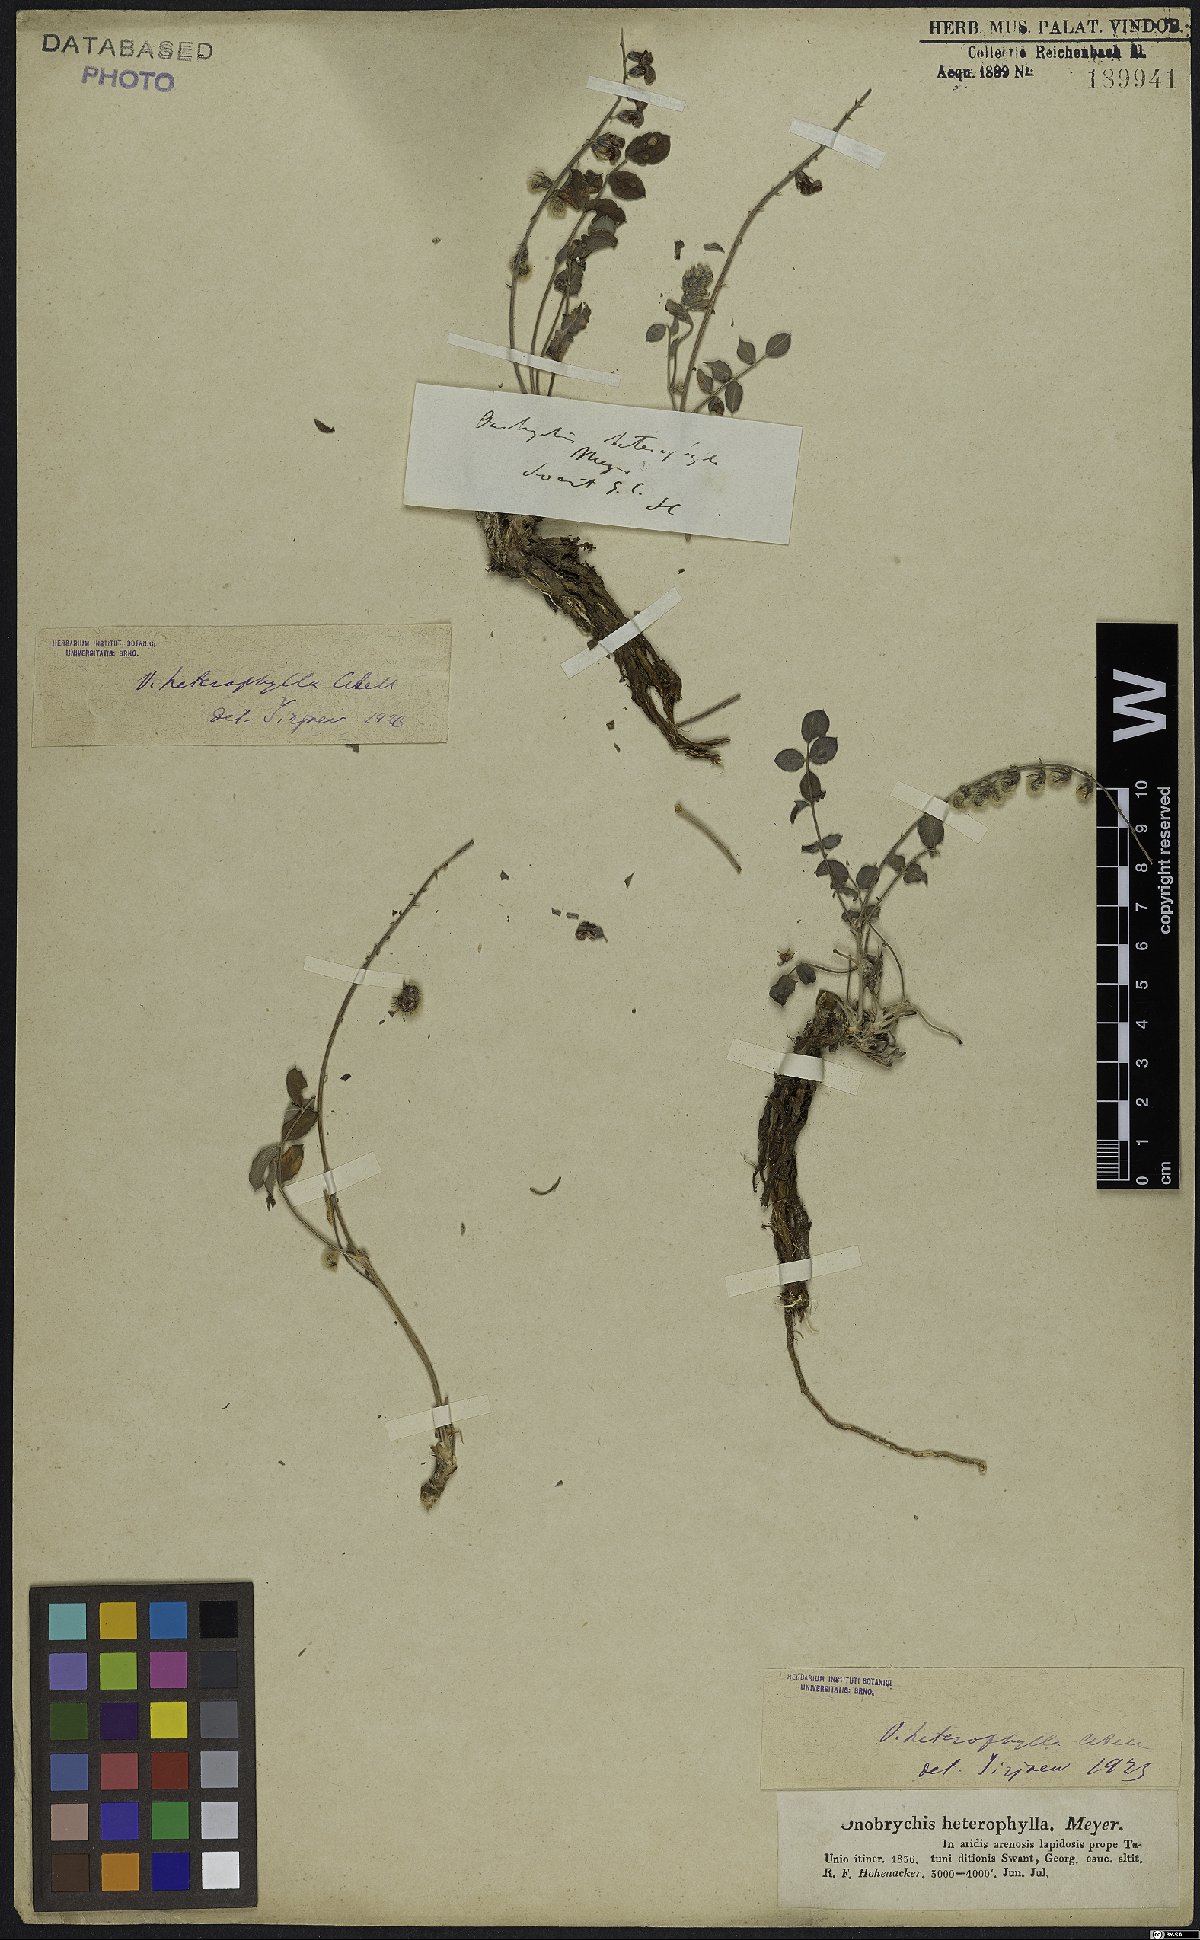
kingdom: Plantae
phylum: Tracheophyta
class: Magnoliopsida
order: Fabales
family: Fabaceae
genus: Onobrychis
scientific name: Onobrychis heterophylla
